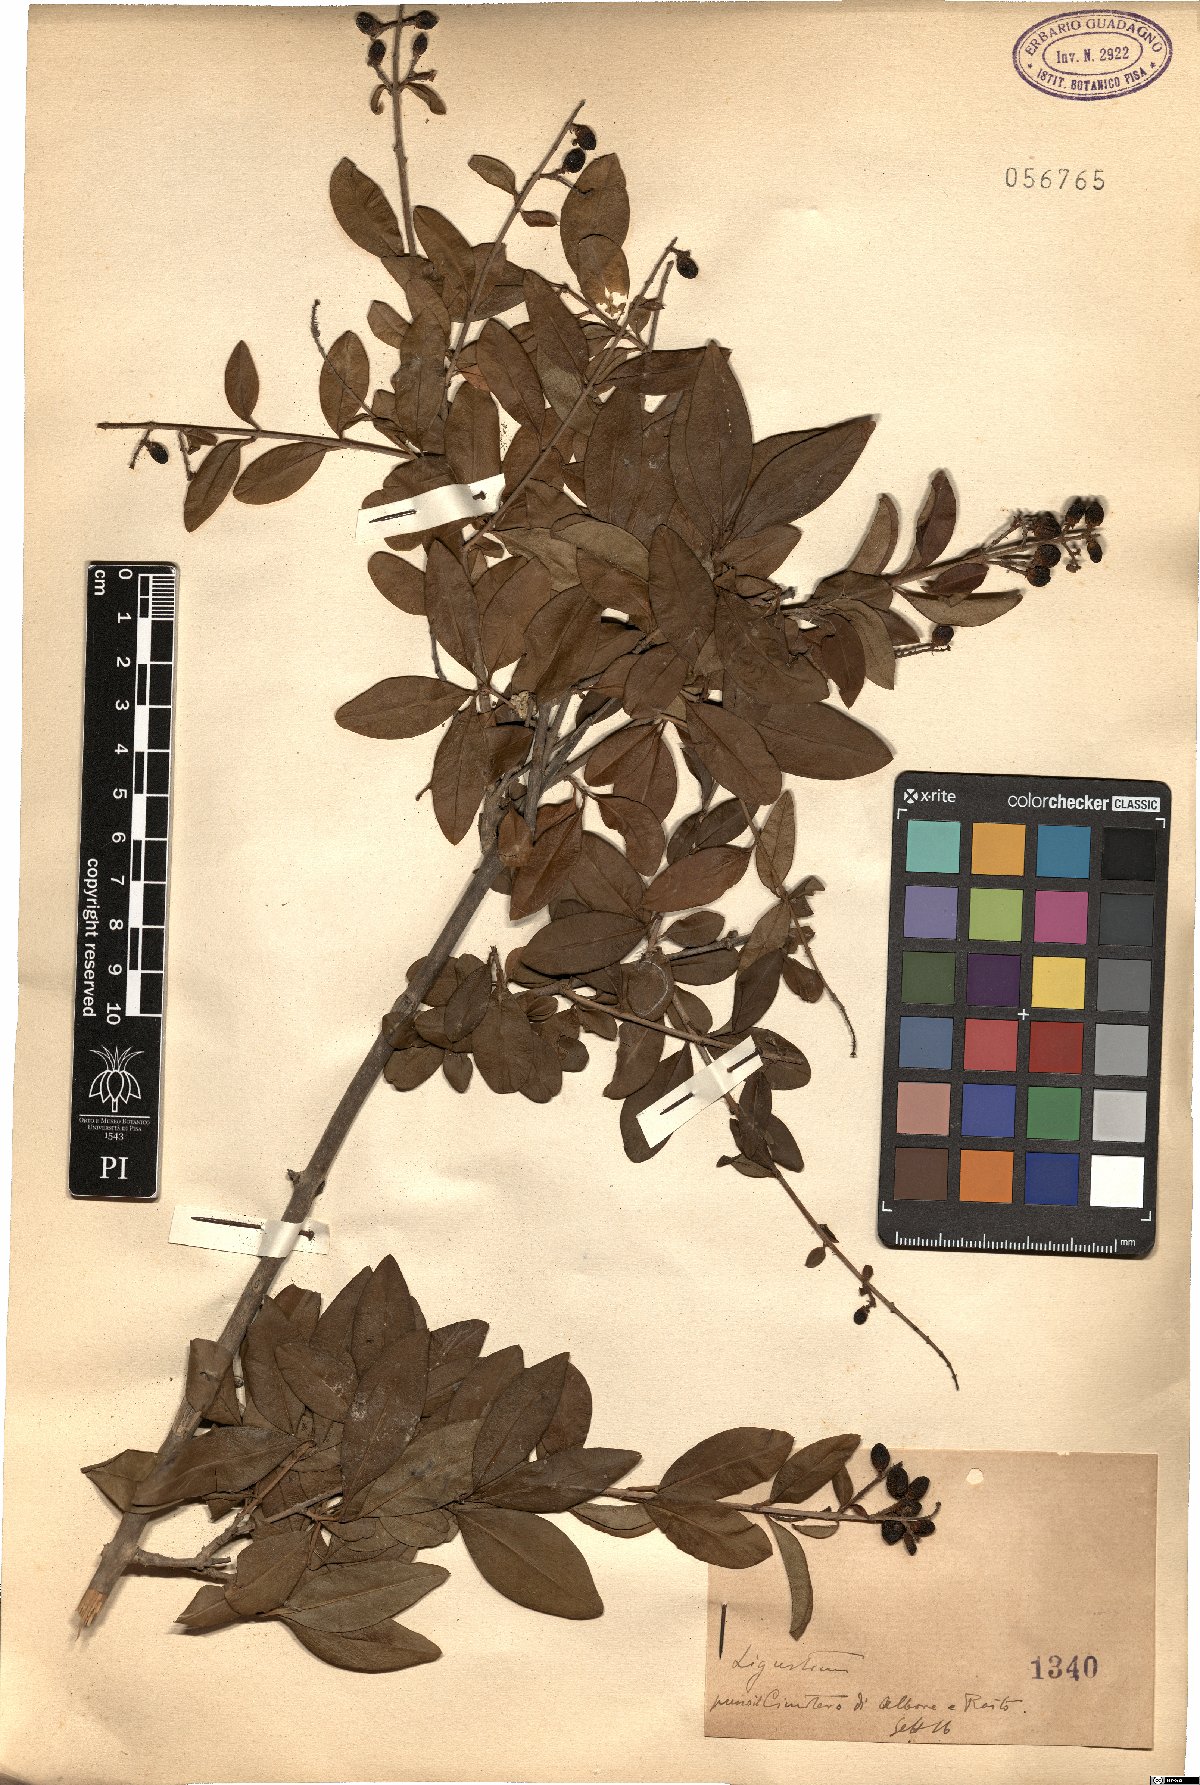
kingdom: Plantae
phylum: Tracheophyta
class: Magnoliopsida
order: Lamiales
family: Oleaceae
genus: Ligustrum
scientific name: Ligustrum
